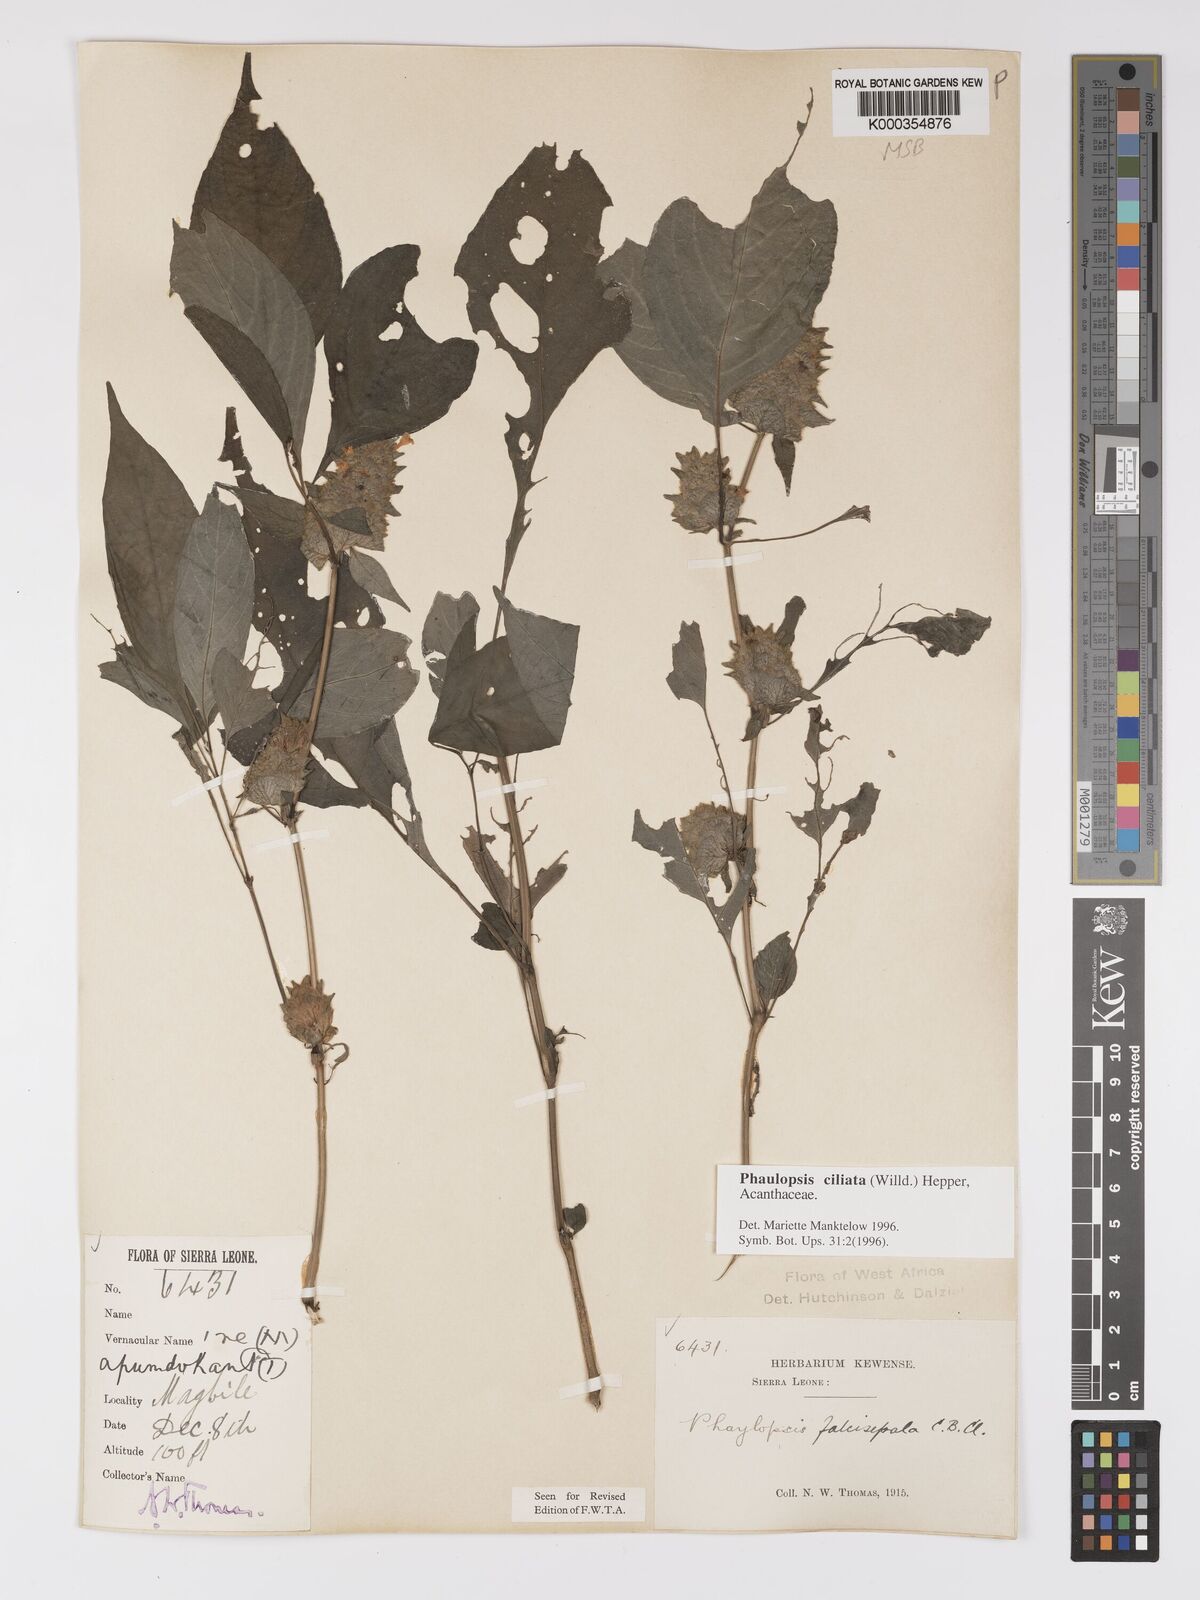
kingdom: Plantae
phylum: Tracheophyta
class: Magnoliopsida
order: Lamiales
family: Acanthaceae
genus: Phaulopsis
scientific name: Phaulopsis ciliata
